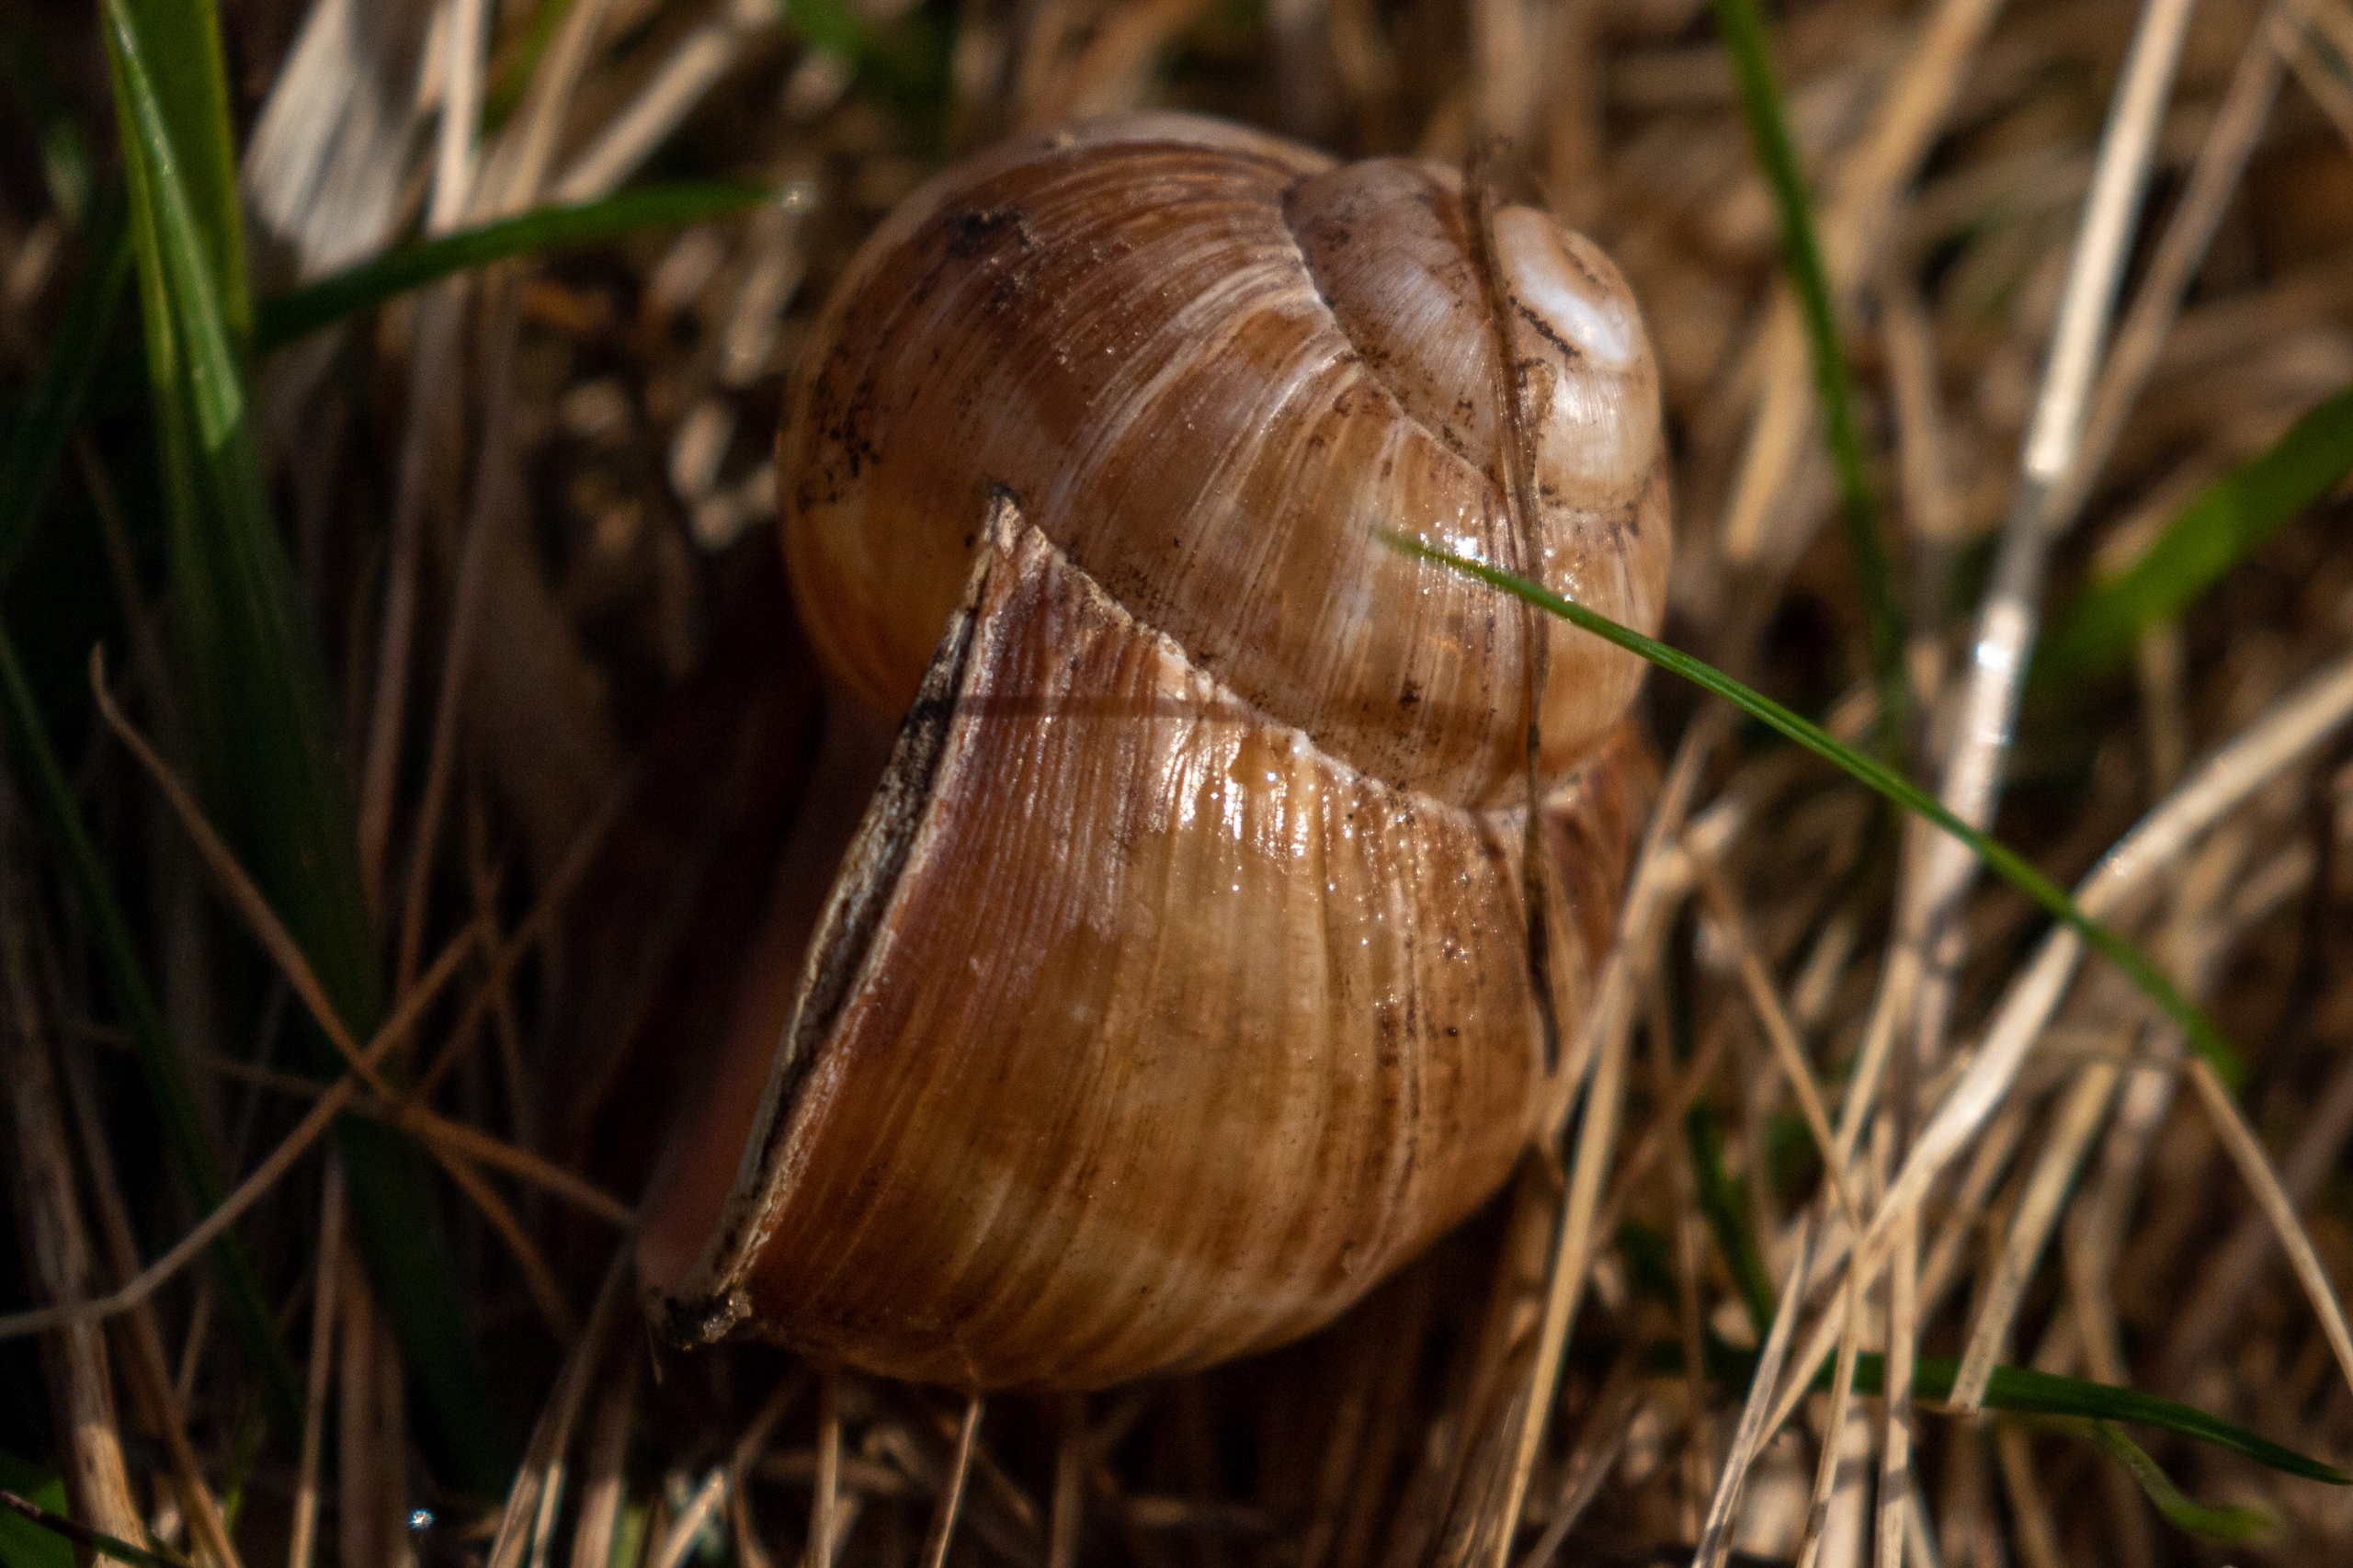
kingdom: Animalia
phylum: Mollusca
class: Gastropoda
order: Stylommatophora
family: Helicidae
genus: Helix
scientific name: Helix pomatia
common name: Vinbjergsnegl
